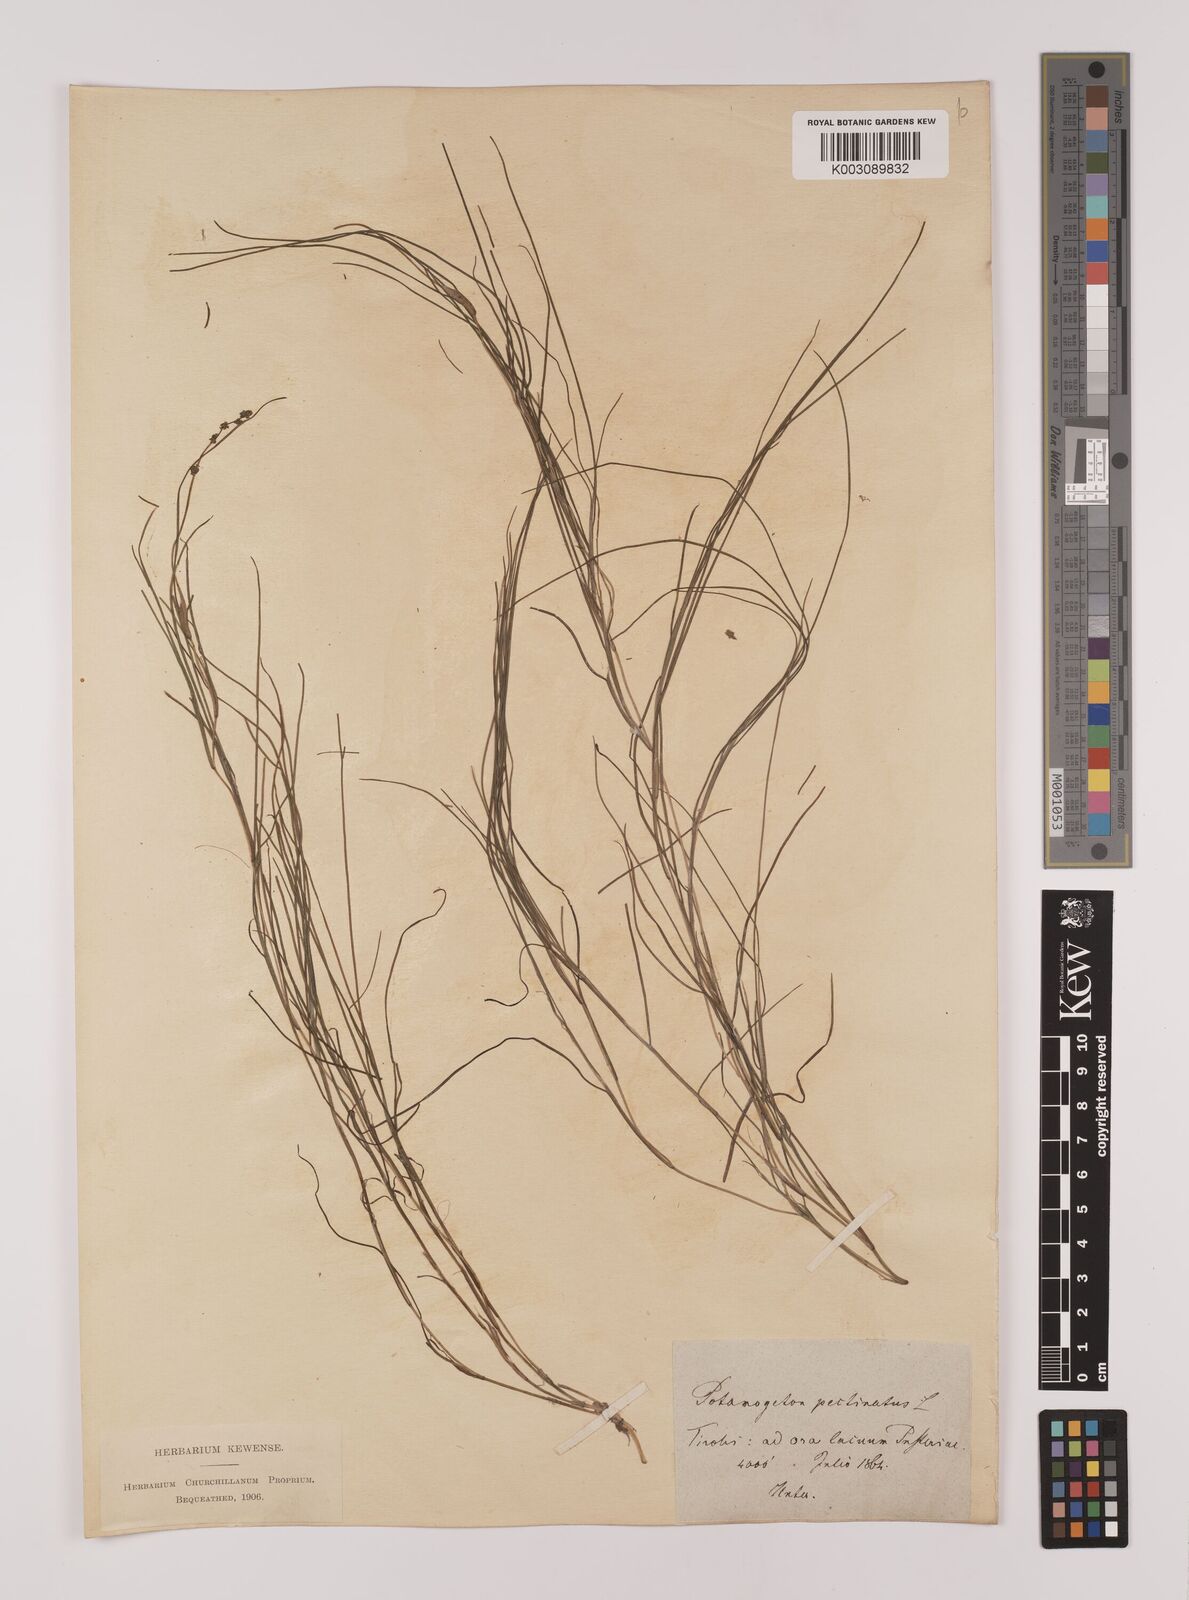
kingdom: Plantae
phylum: Tracheophyta
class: Liliopsida
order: Alismatales
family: Potamogetonaceae
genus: Stuckenia
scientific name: Stuckenia pectinata
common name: Sago pondweed
